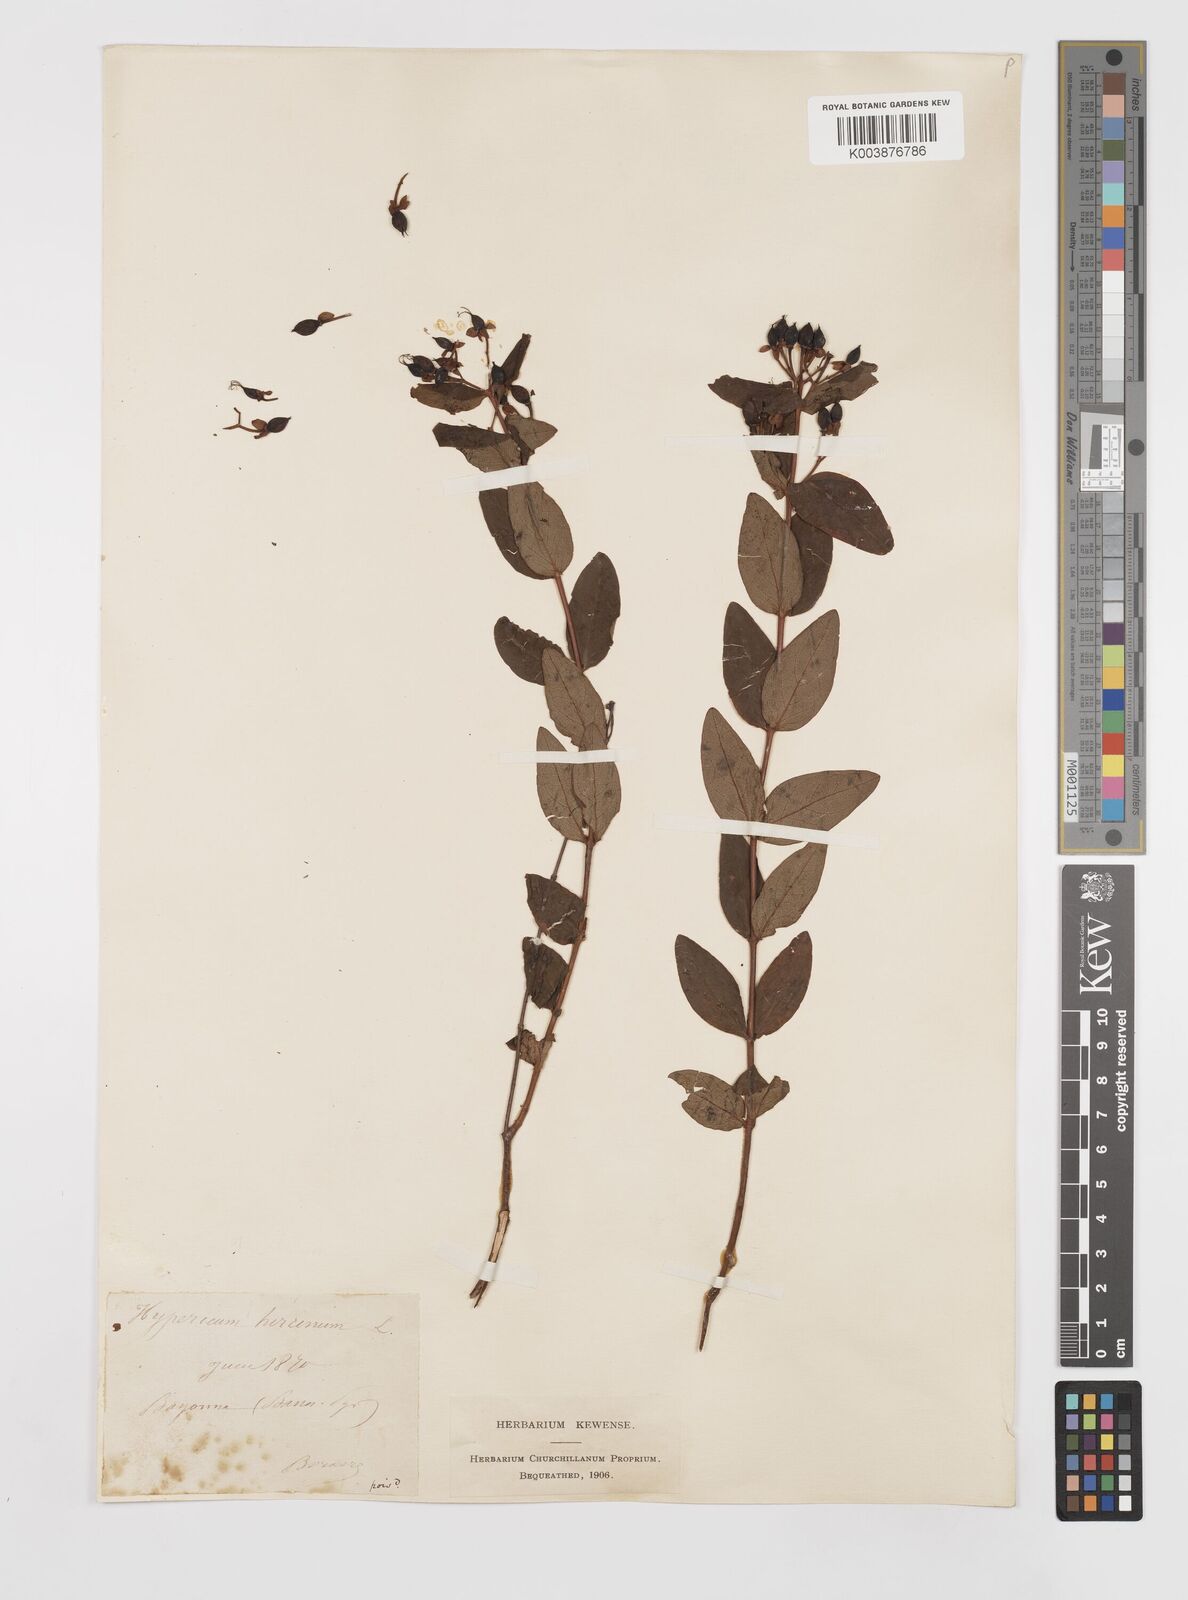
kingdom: Plantae
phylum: Tracheophyta
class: Magnoliopsida
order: Malpighiales
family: Hypericaceae
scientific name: Hypericaceae
